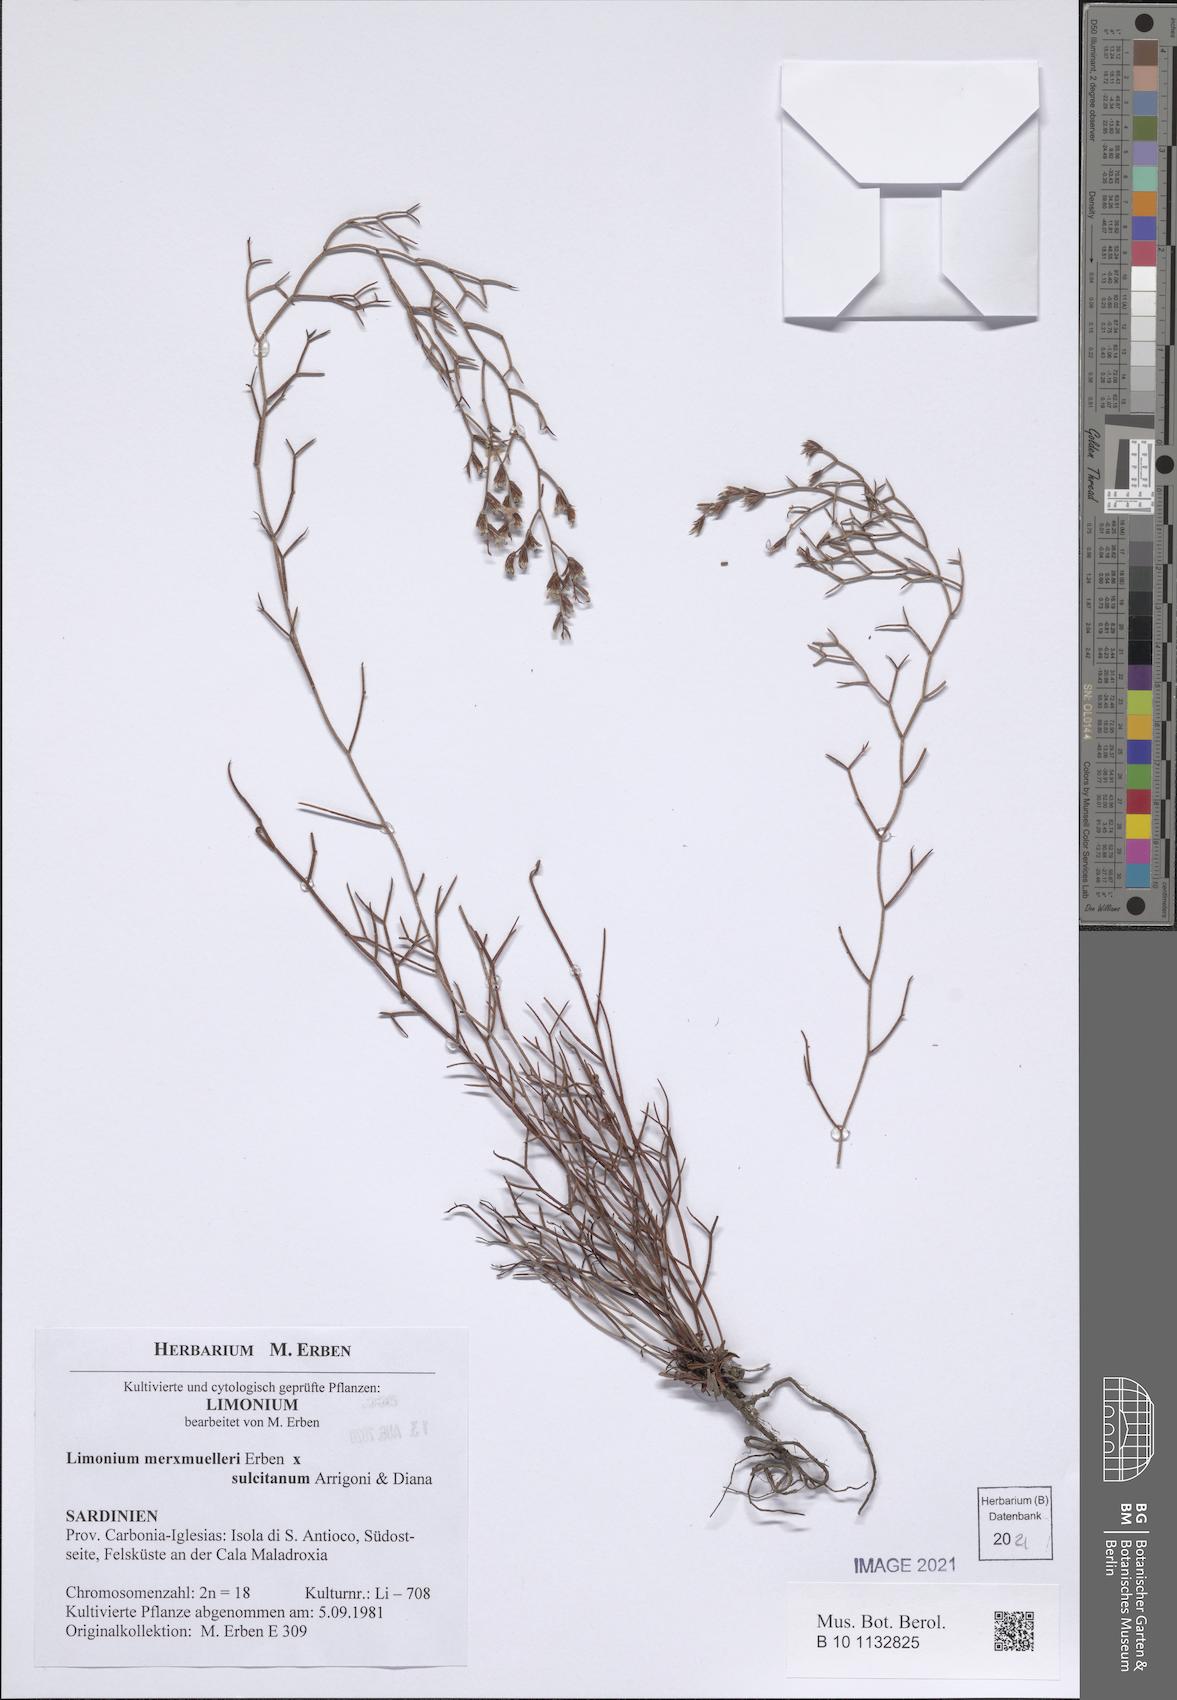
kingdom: Plantae
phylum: Tracheophyta
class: Magnoliopsida
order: Caryophyllales
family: Plumbaginaceae
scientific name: Plumbaginaceae
